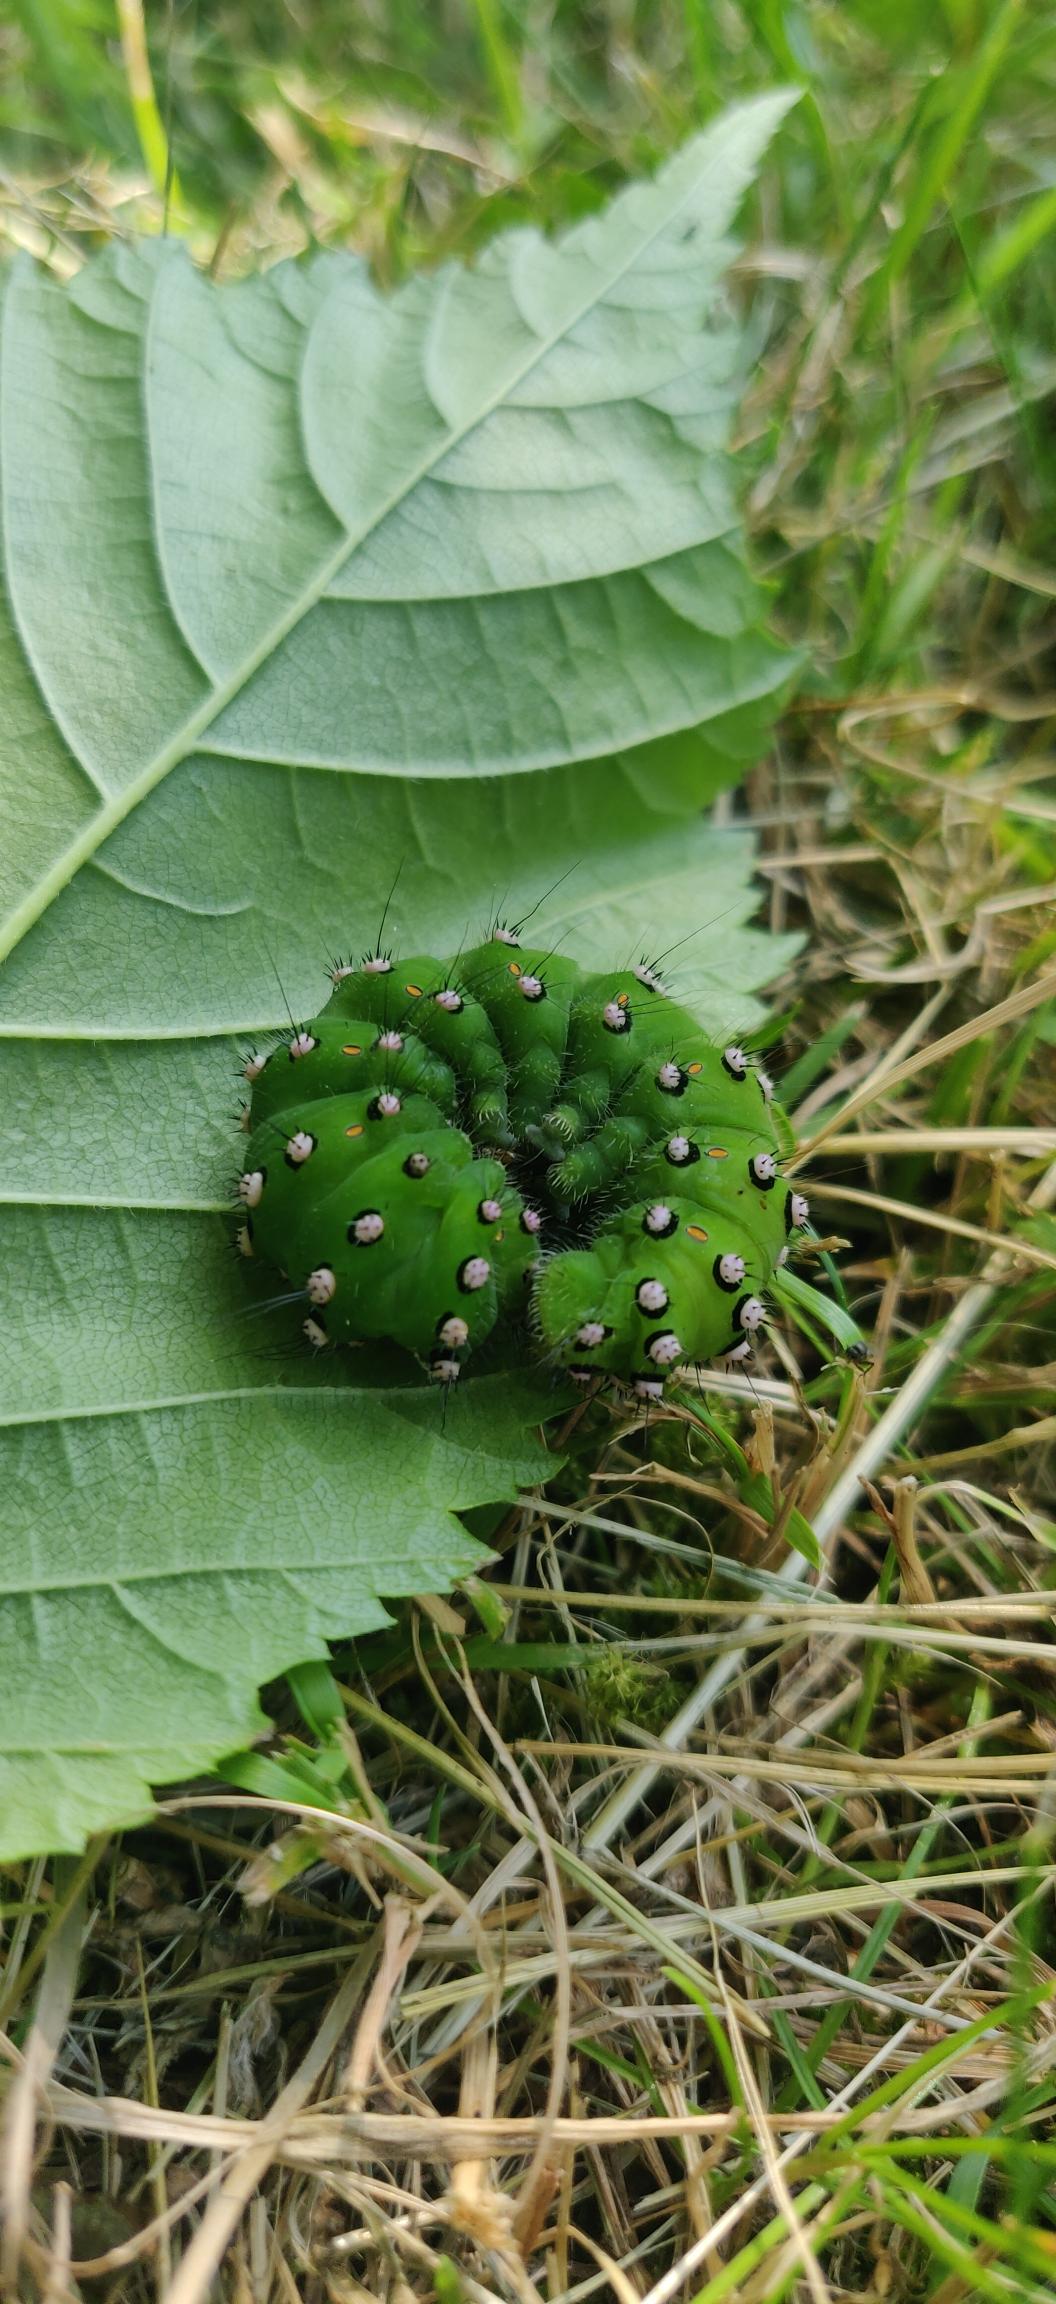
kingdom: Animalia
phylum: Arthropoda
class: Insecta
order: Lepidoptera
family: Saturniidae
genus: Saturnia
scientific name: Saturnia pavonia
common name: Lille natpåfugleøje
